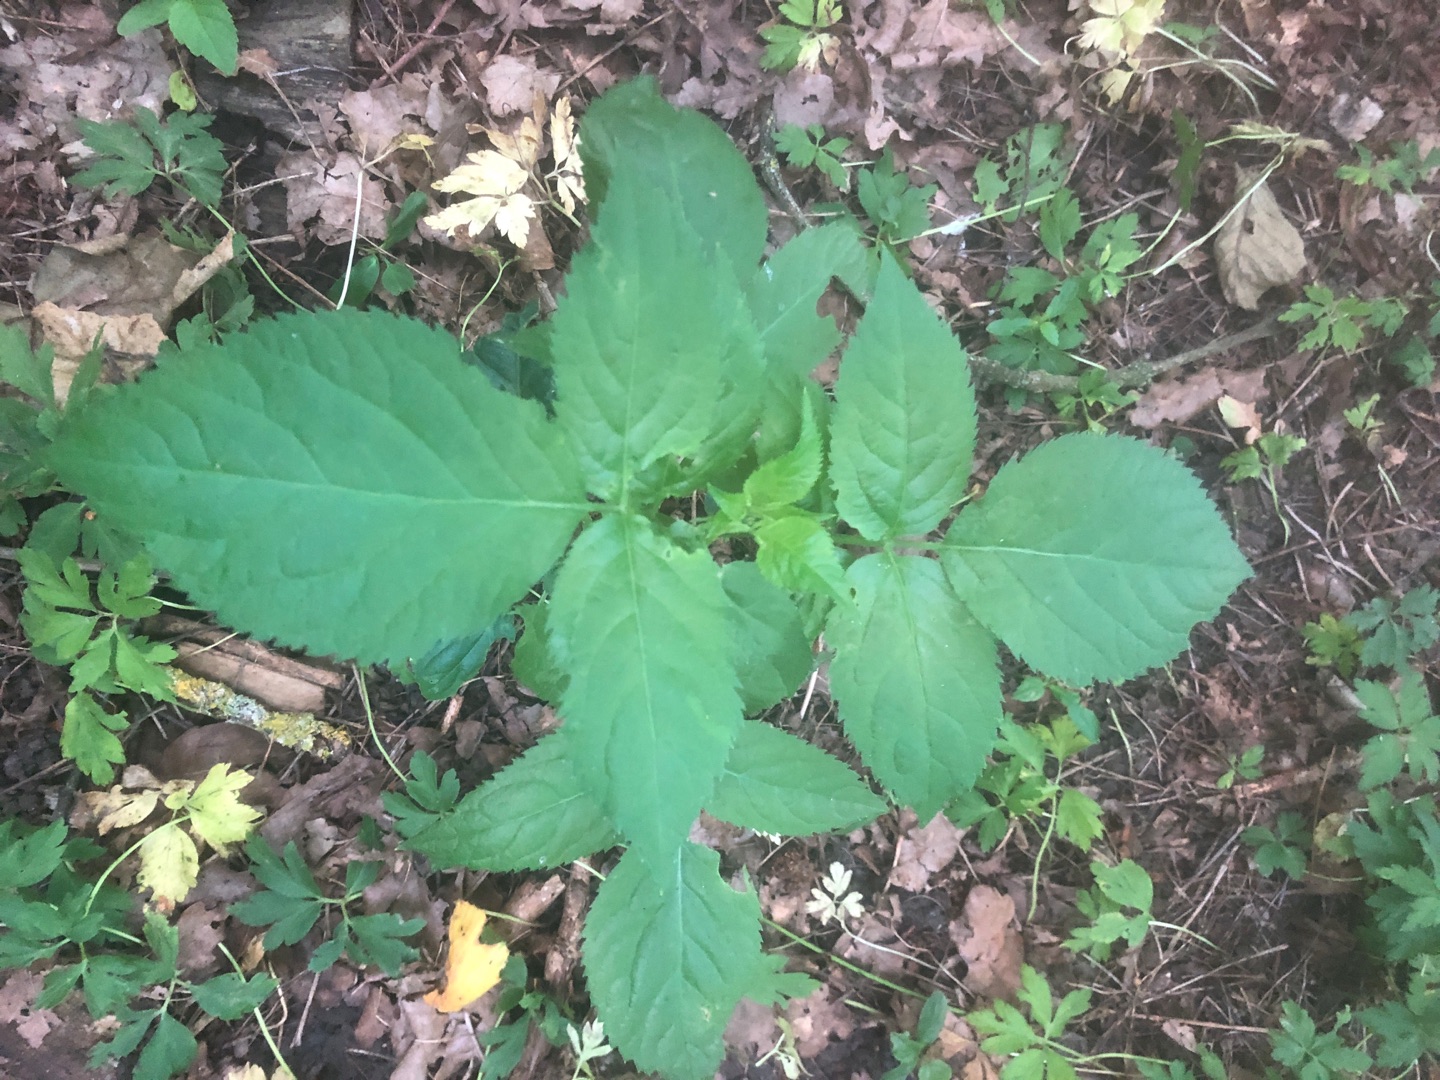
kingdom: Plantae
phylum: Tracheophyta
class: Magnoliopsida
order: Dipsacales
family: Viburnaceae
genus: Sambucus
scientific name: Sambucus nigra
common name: Almindelig hyld
